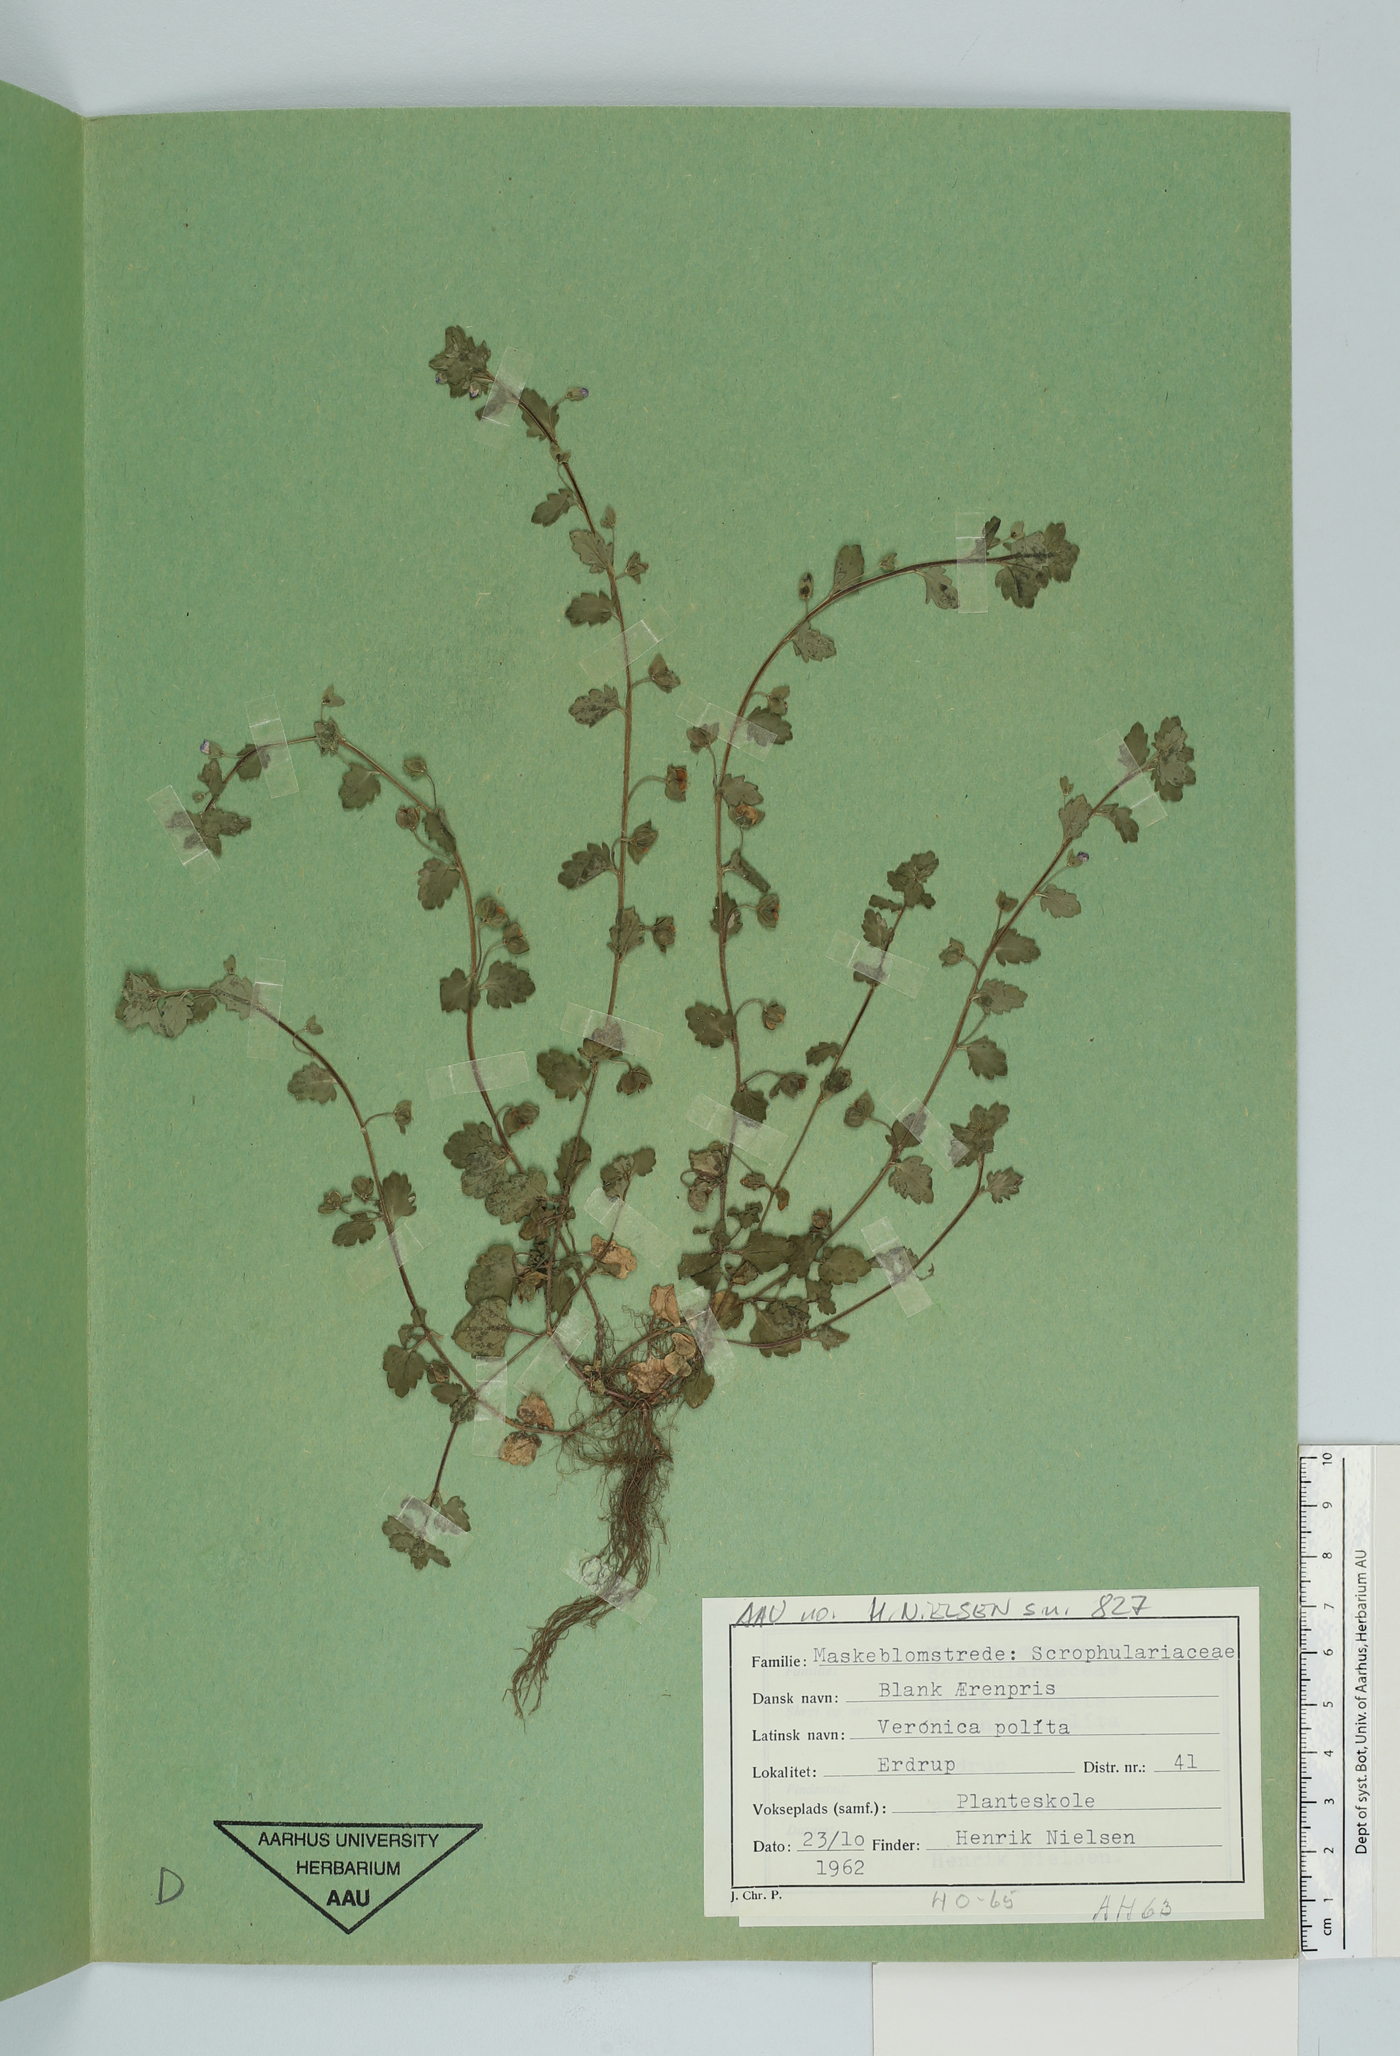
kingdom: Plantae
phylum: Tracheophyta
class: Magnoliopsida
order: Lamiales
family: Plantaginaceae
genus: Veronica
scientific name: Veronica polita
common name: Grey field-speedwell
